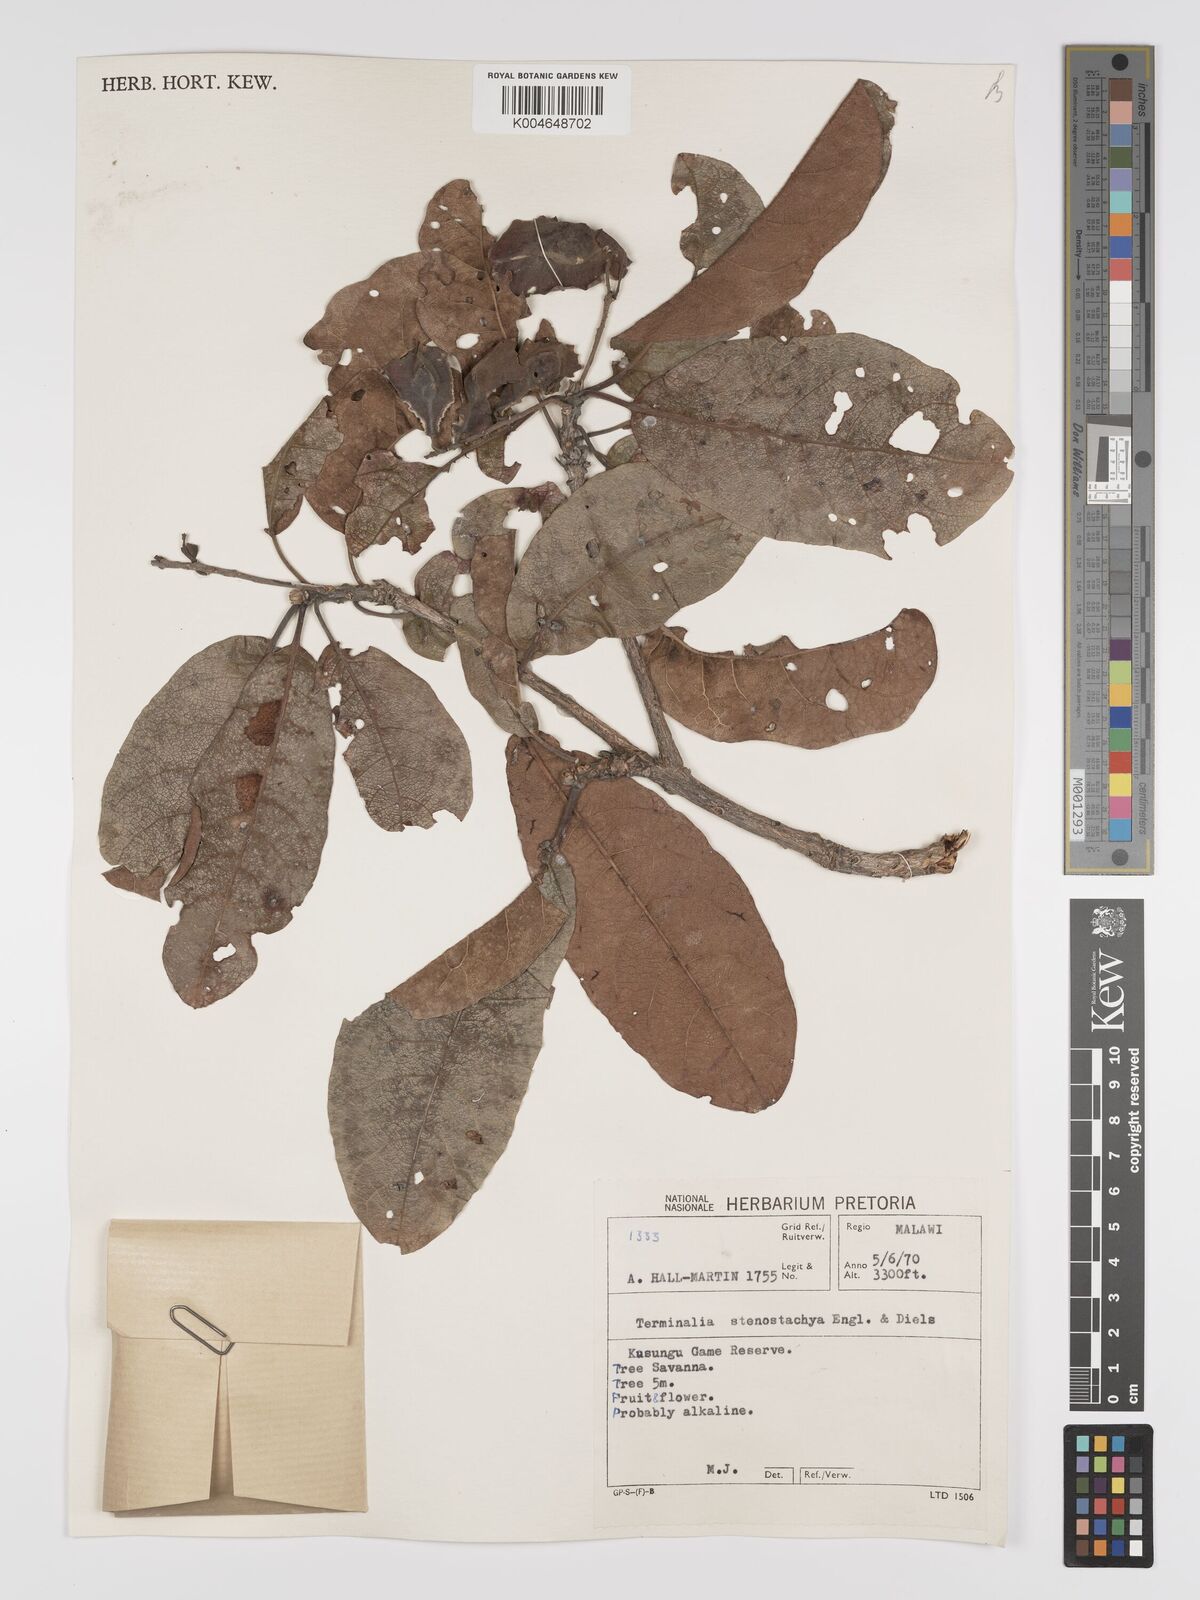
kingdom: Plantae
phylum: Tracheophyta
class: Magnoliopsida
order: Myrtales
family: Combretaceae
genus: Terminalia
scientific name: Terminalia stenostachya
